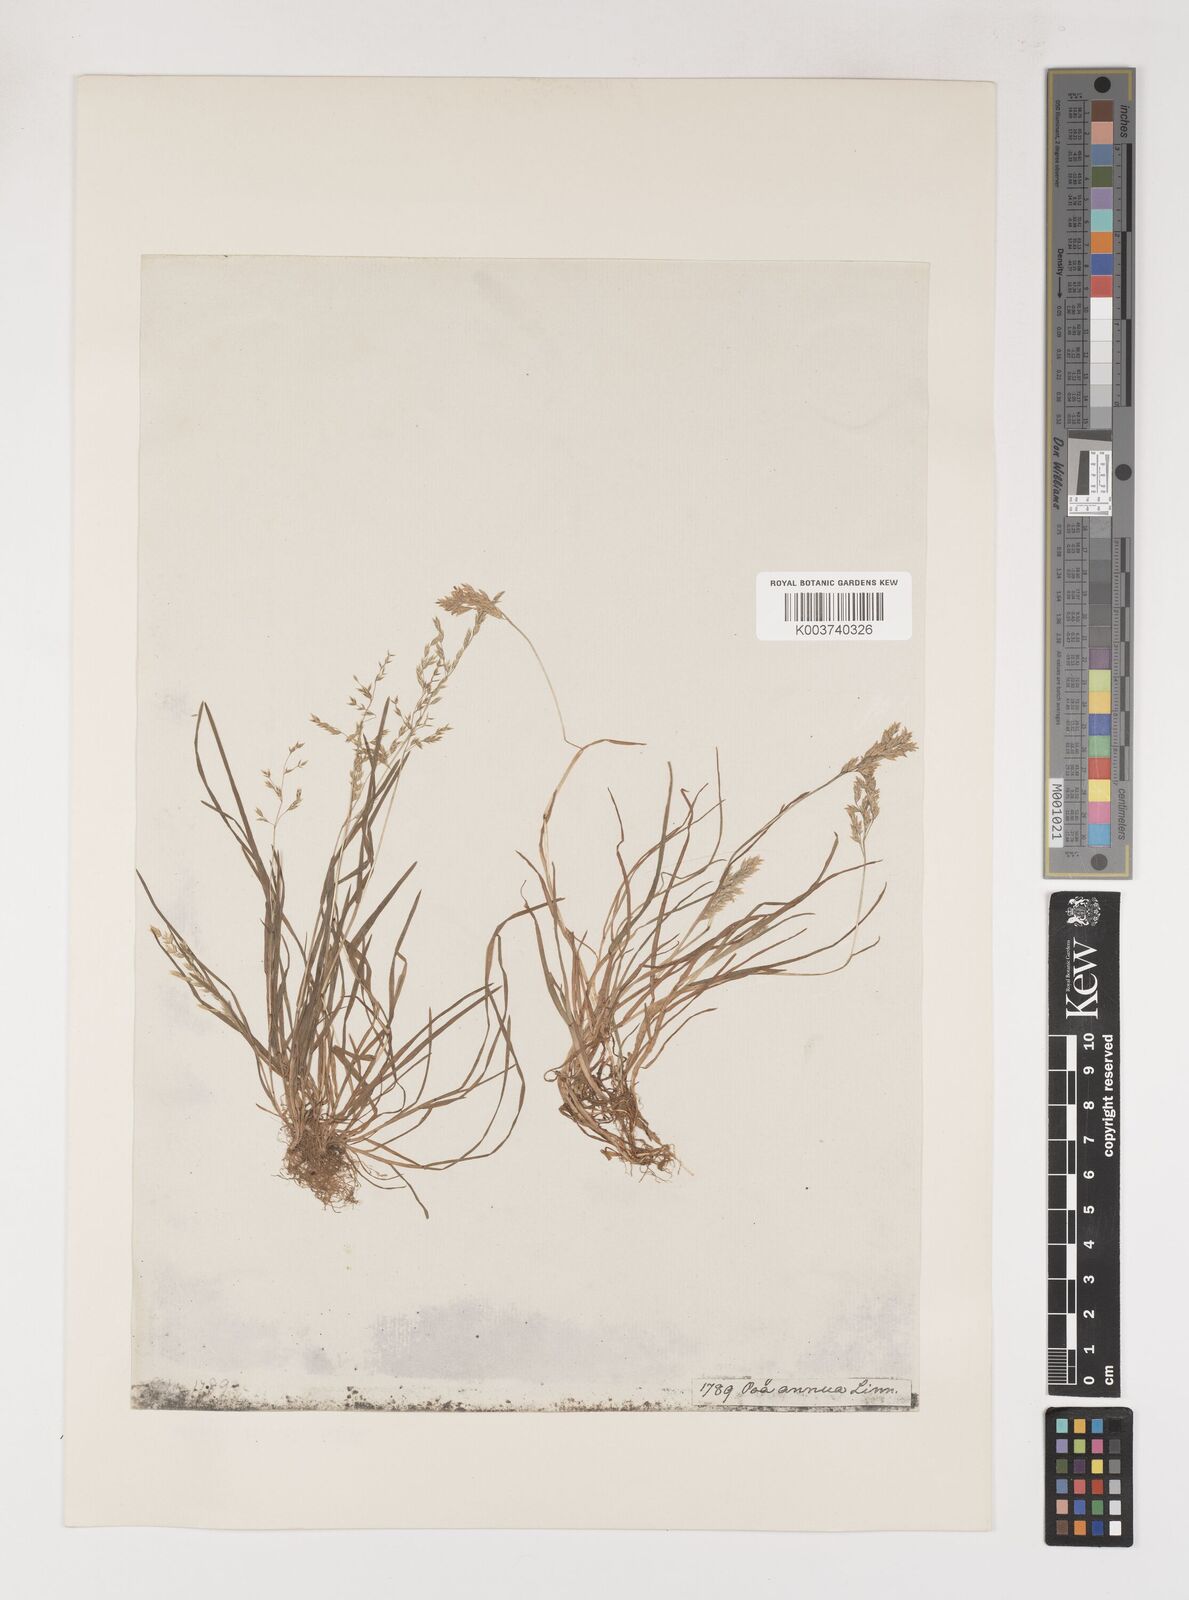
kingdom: Plantae
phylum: Tracheophyta
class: Liliopsida
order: Poales
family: Poaceae
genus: Poa
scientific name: Poa annua
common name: Annual bluegrass
